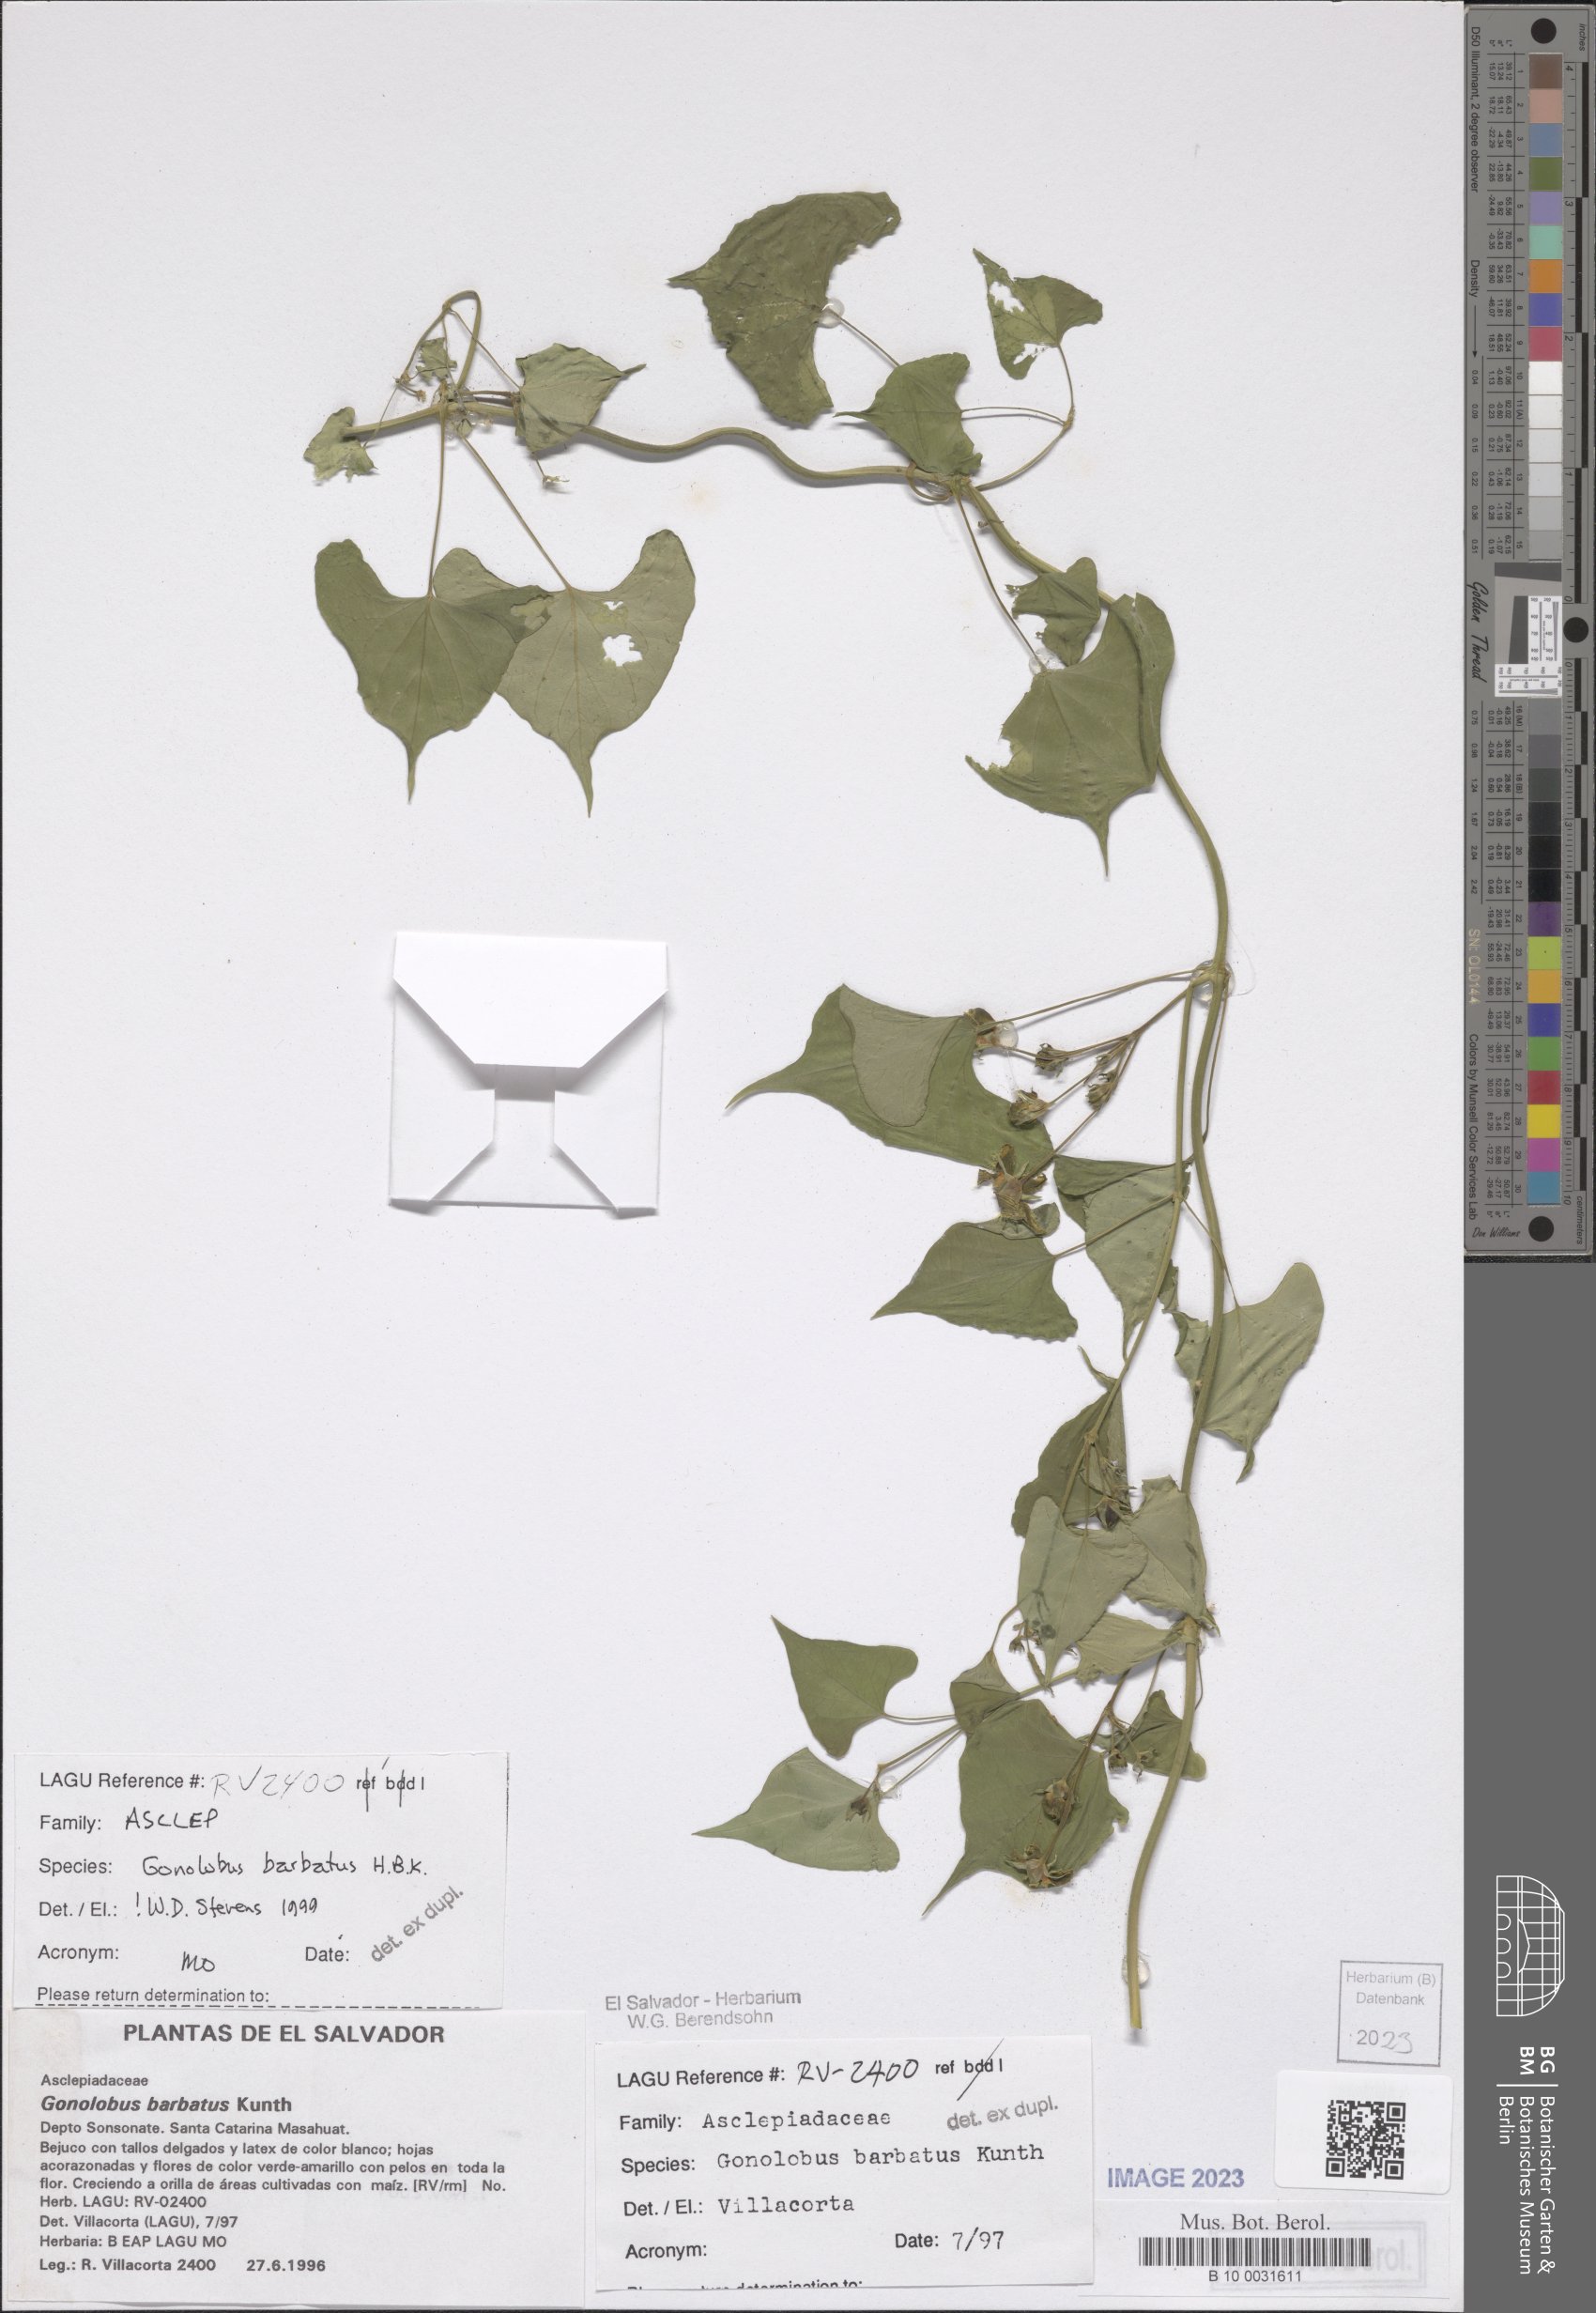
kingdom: Plantae
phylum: Tracheophyta
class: Magnoliopsida
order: Gentianales
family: Apocynaceae
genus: Gonolobus
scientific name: Gonolobus barbatus
